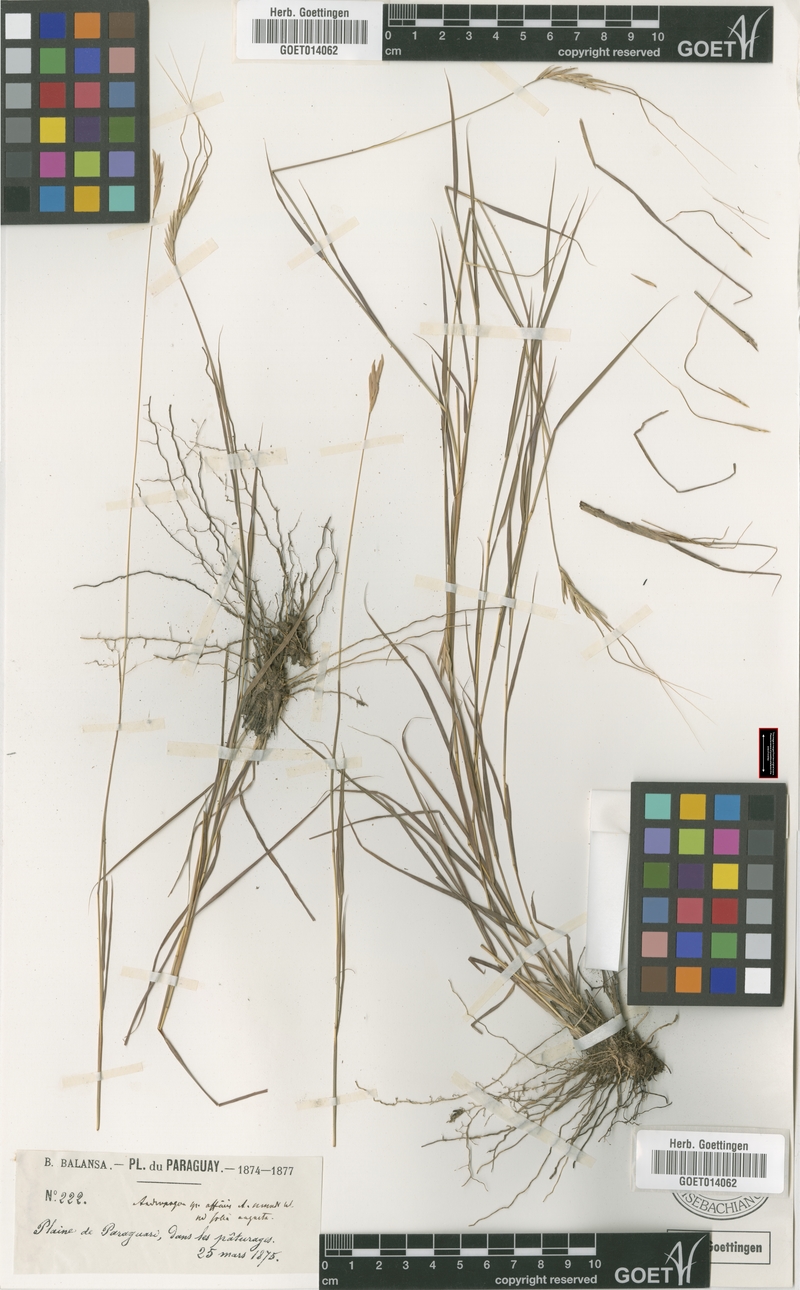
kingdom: Plantae
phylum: Tracheophyta
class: Liliopsida
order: Poales
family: Poaceae
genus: Agenium
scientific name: Agenium leptocladum
